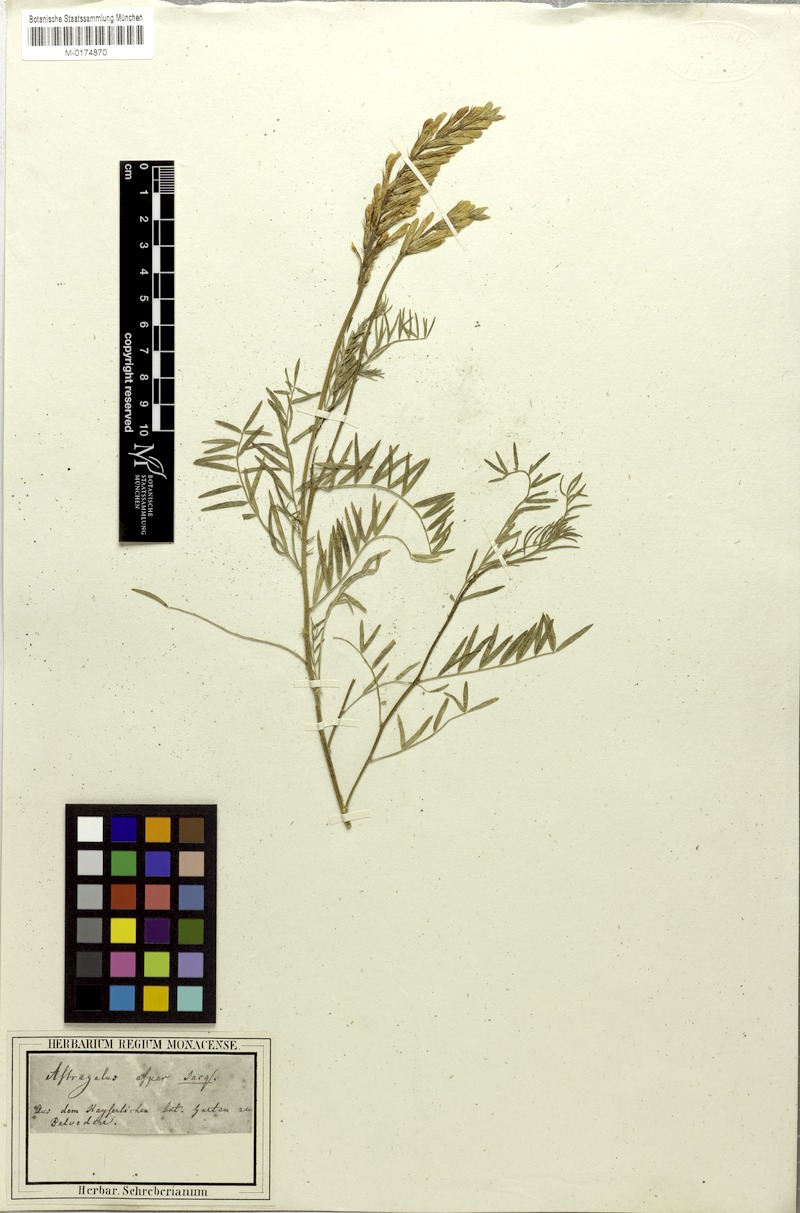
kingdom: Plantae
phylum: Tracheophyta
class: Magnoliopsida
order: Fabales
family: Fabaceae
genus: Astragalus
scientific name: Astragalus asper
